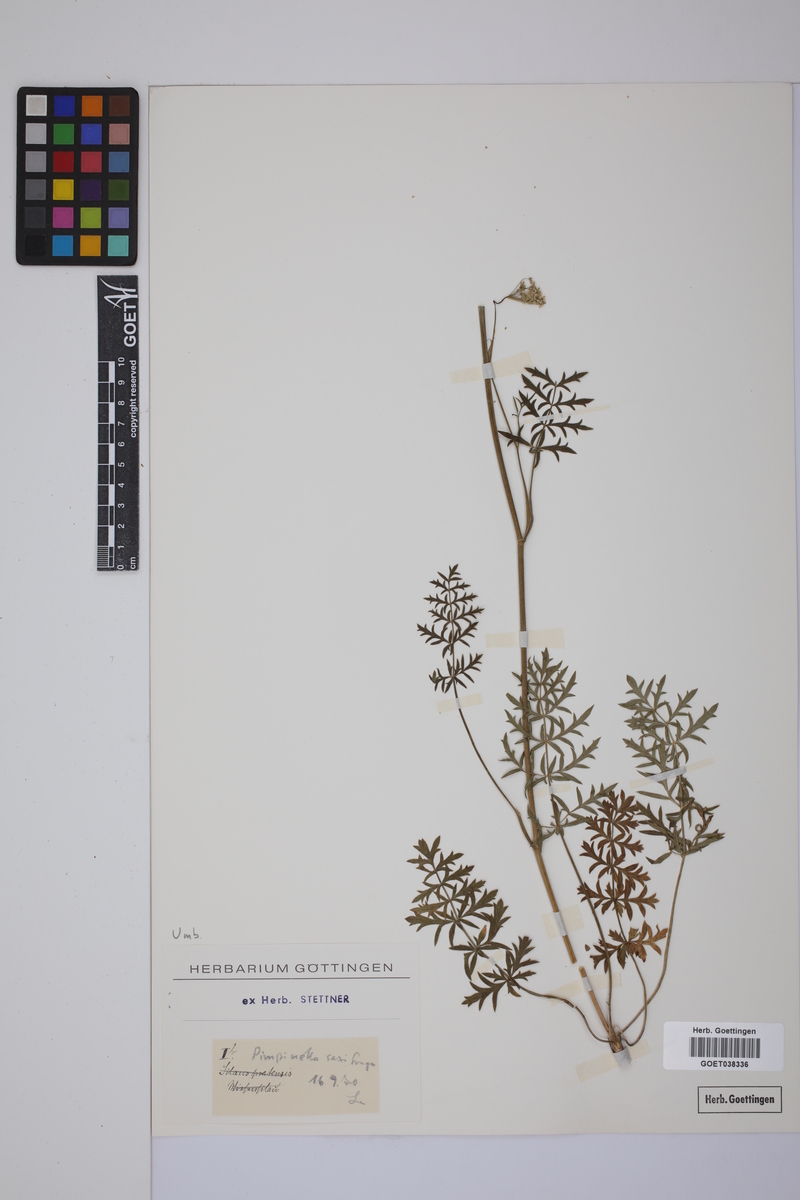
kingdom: Plantae
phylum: Tracheophyta
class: Magnoliopsida
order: Apiales
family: Apiaceae
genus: Pimpinella
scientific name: Pimpinella saxifraga
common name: Burnet-saxifrage
